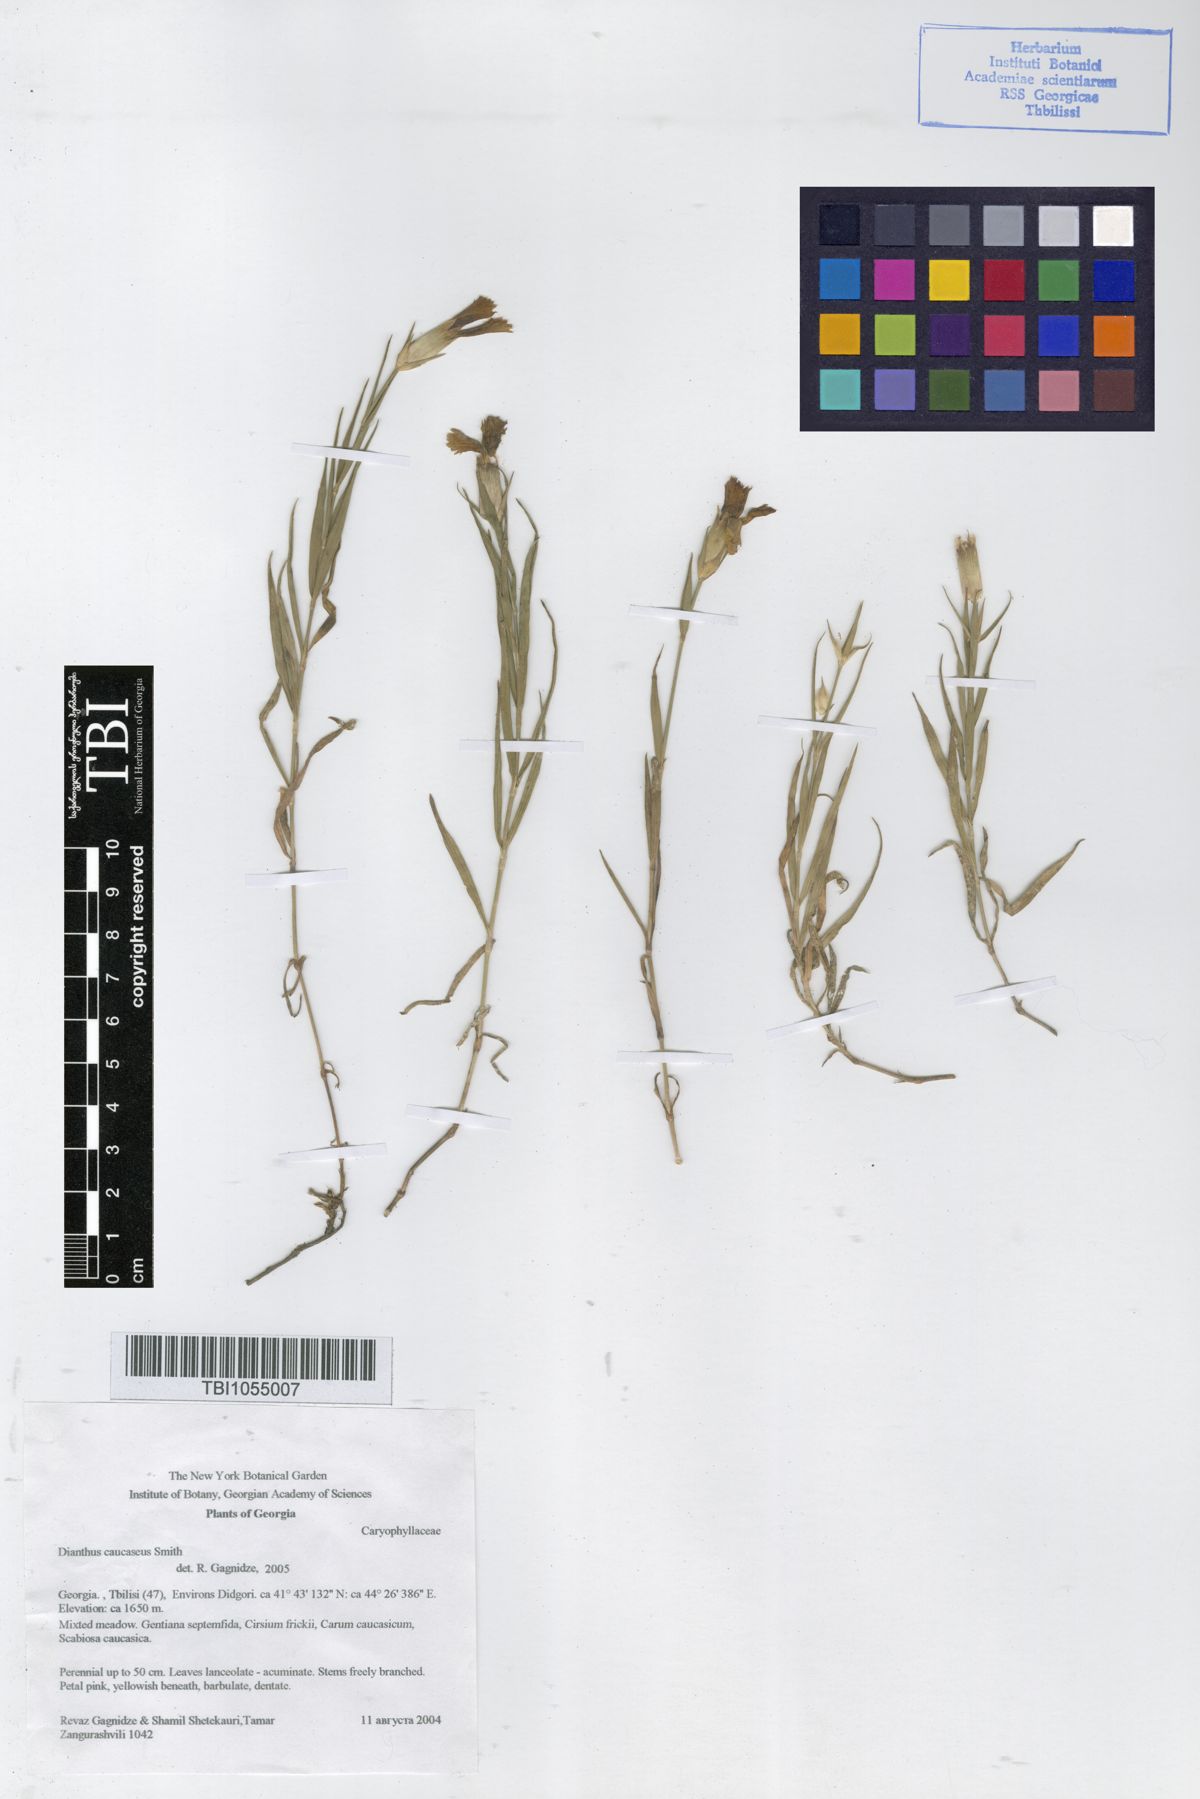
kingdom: Plantae
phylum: Tracheophyta
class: Magnoliopsida
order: Caryophyllales
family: Caryophyllaceae
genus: Dianthus
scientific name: Dianthus caucaseus
